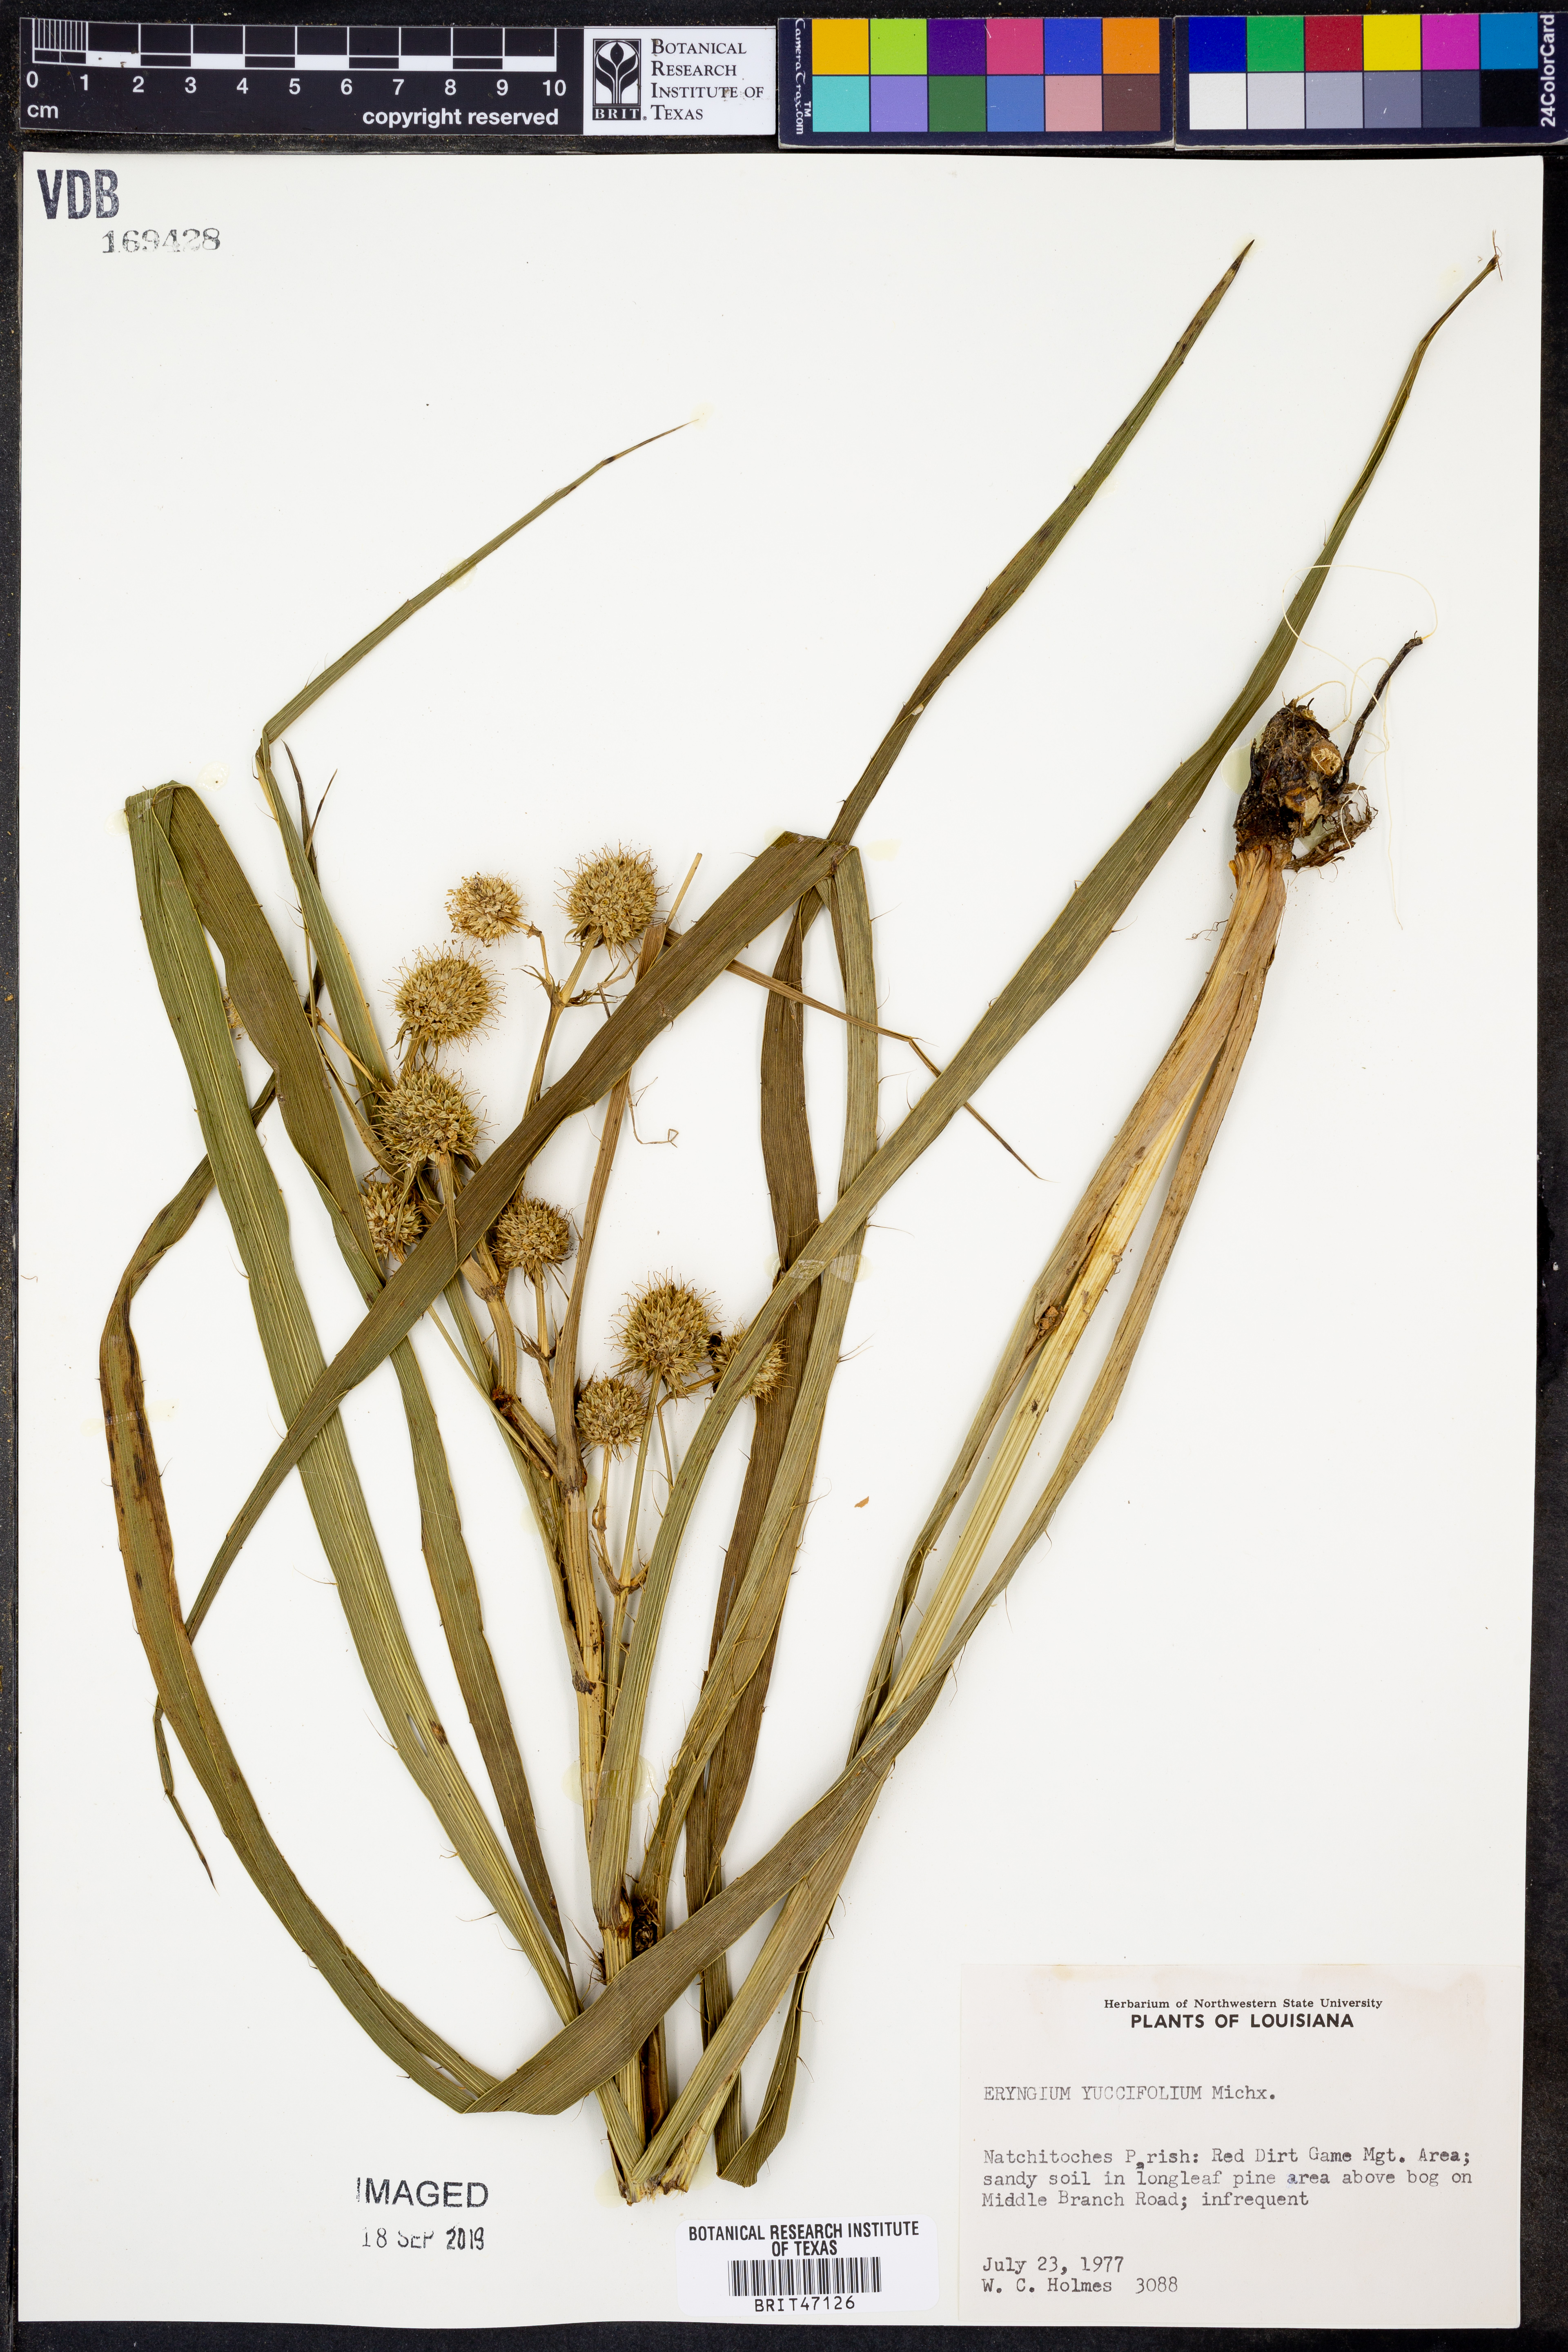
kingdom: Plantae
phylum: Tracheophyta
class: Magnoliopsida
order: Apiales
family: Apiaceae
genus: Eryngium
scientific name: Eryngium yuccifolium
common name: Button eryngo
